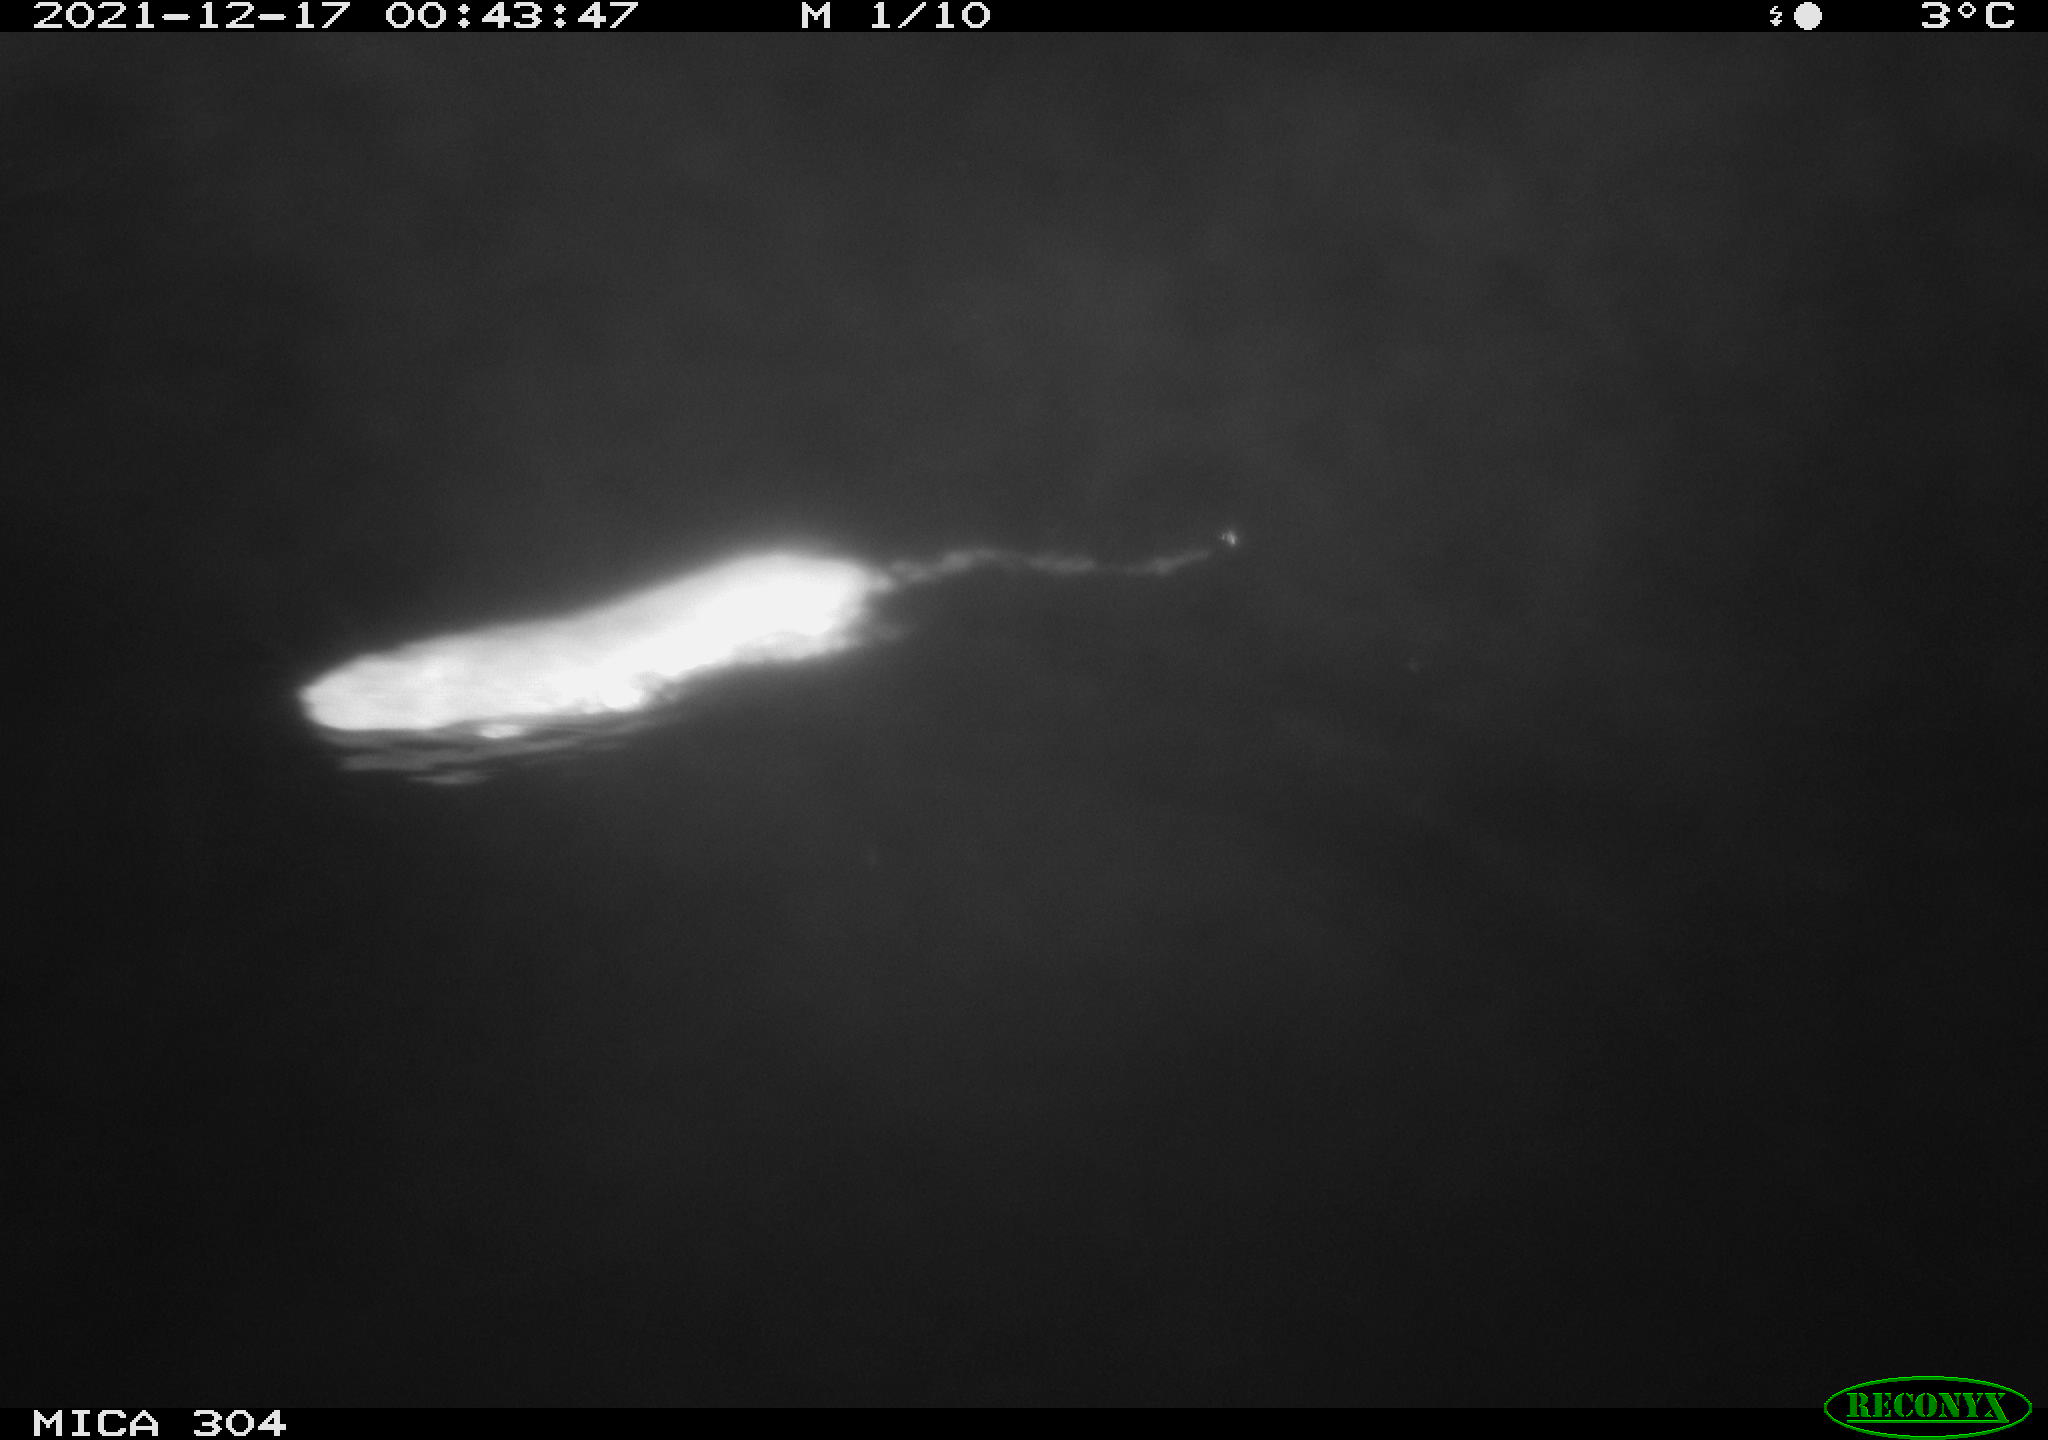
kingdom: Animalia
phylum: Chordata
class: Mammalia
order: Rodentia
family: Muridae
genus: Rattus
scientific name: Rattus norvegicus
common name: Brown rat
